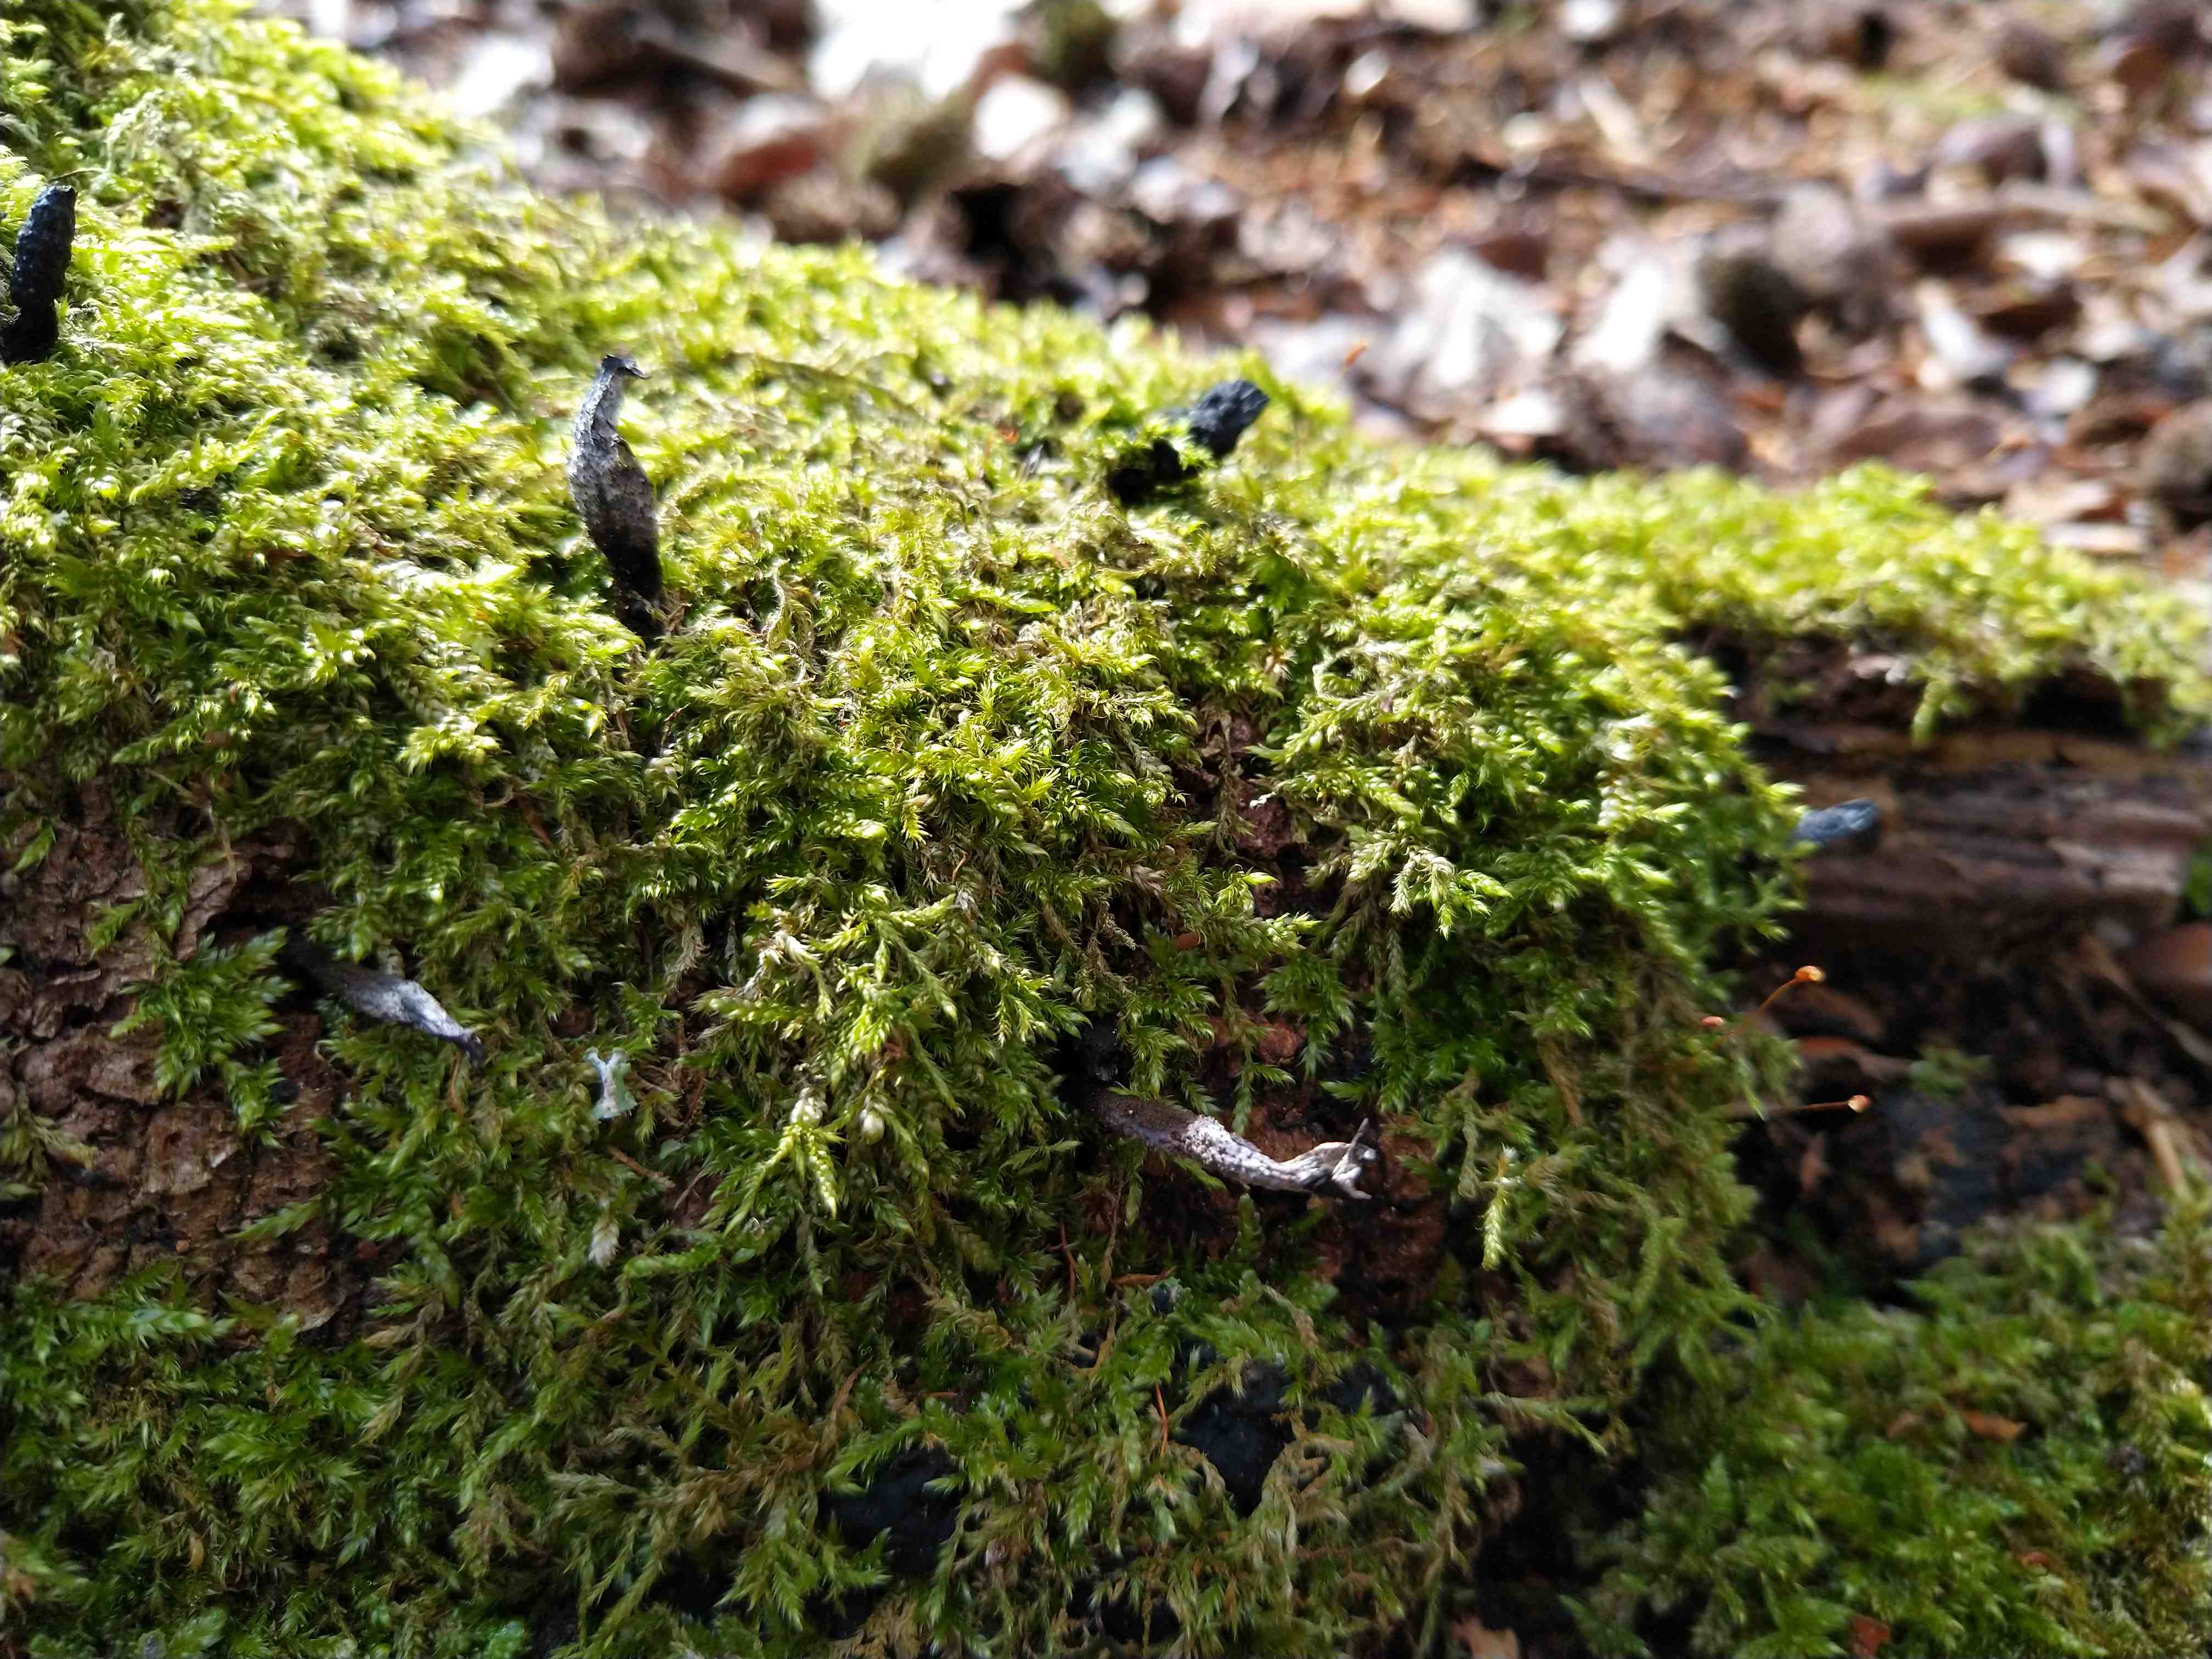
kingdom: Fungi
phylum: Ascomycota
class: Sordariomycetes
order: Xylariales
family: Xylariaceae
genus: Xylaria
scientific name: Xylaria hypoxylon
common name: grenet stødsvamp
